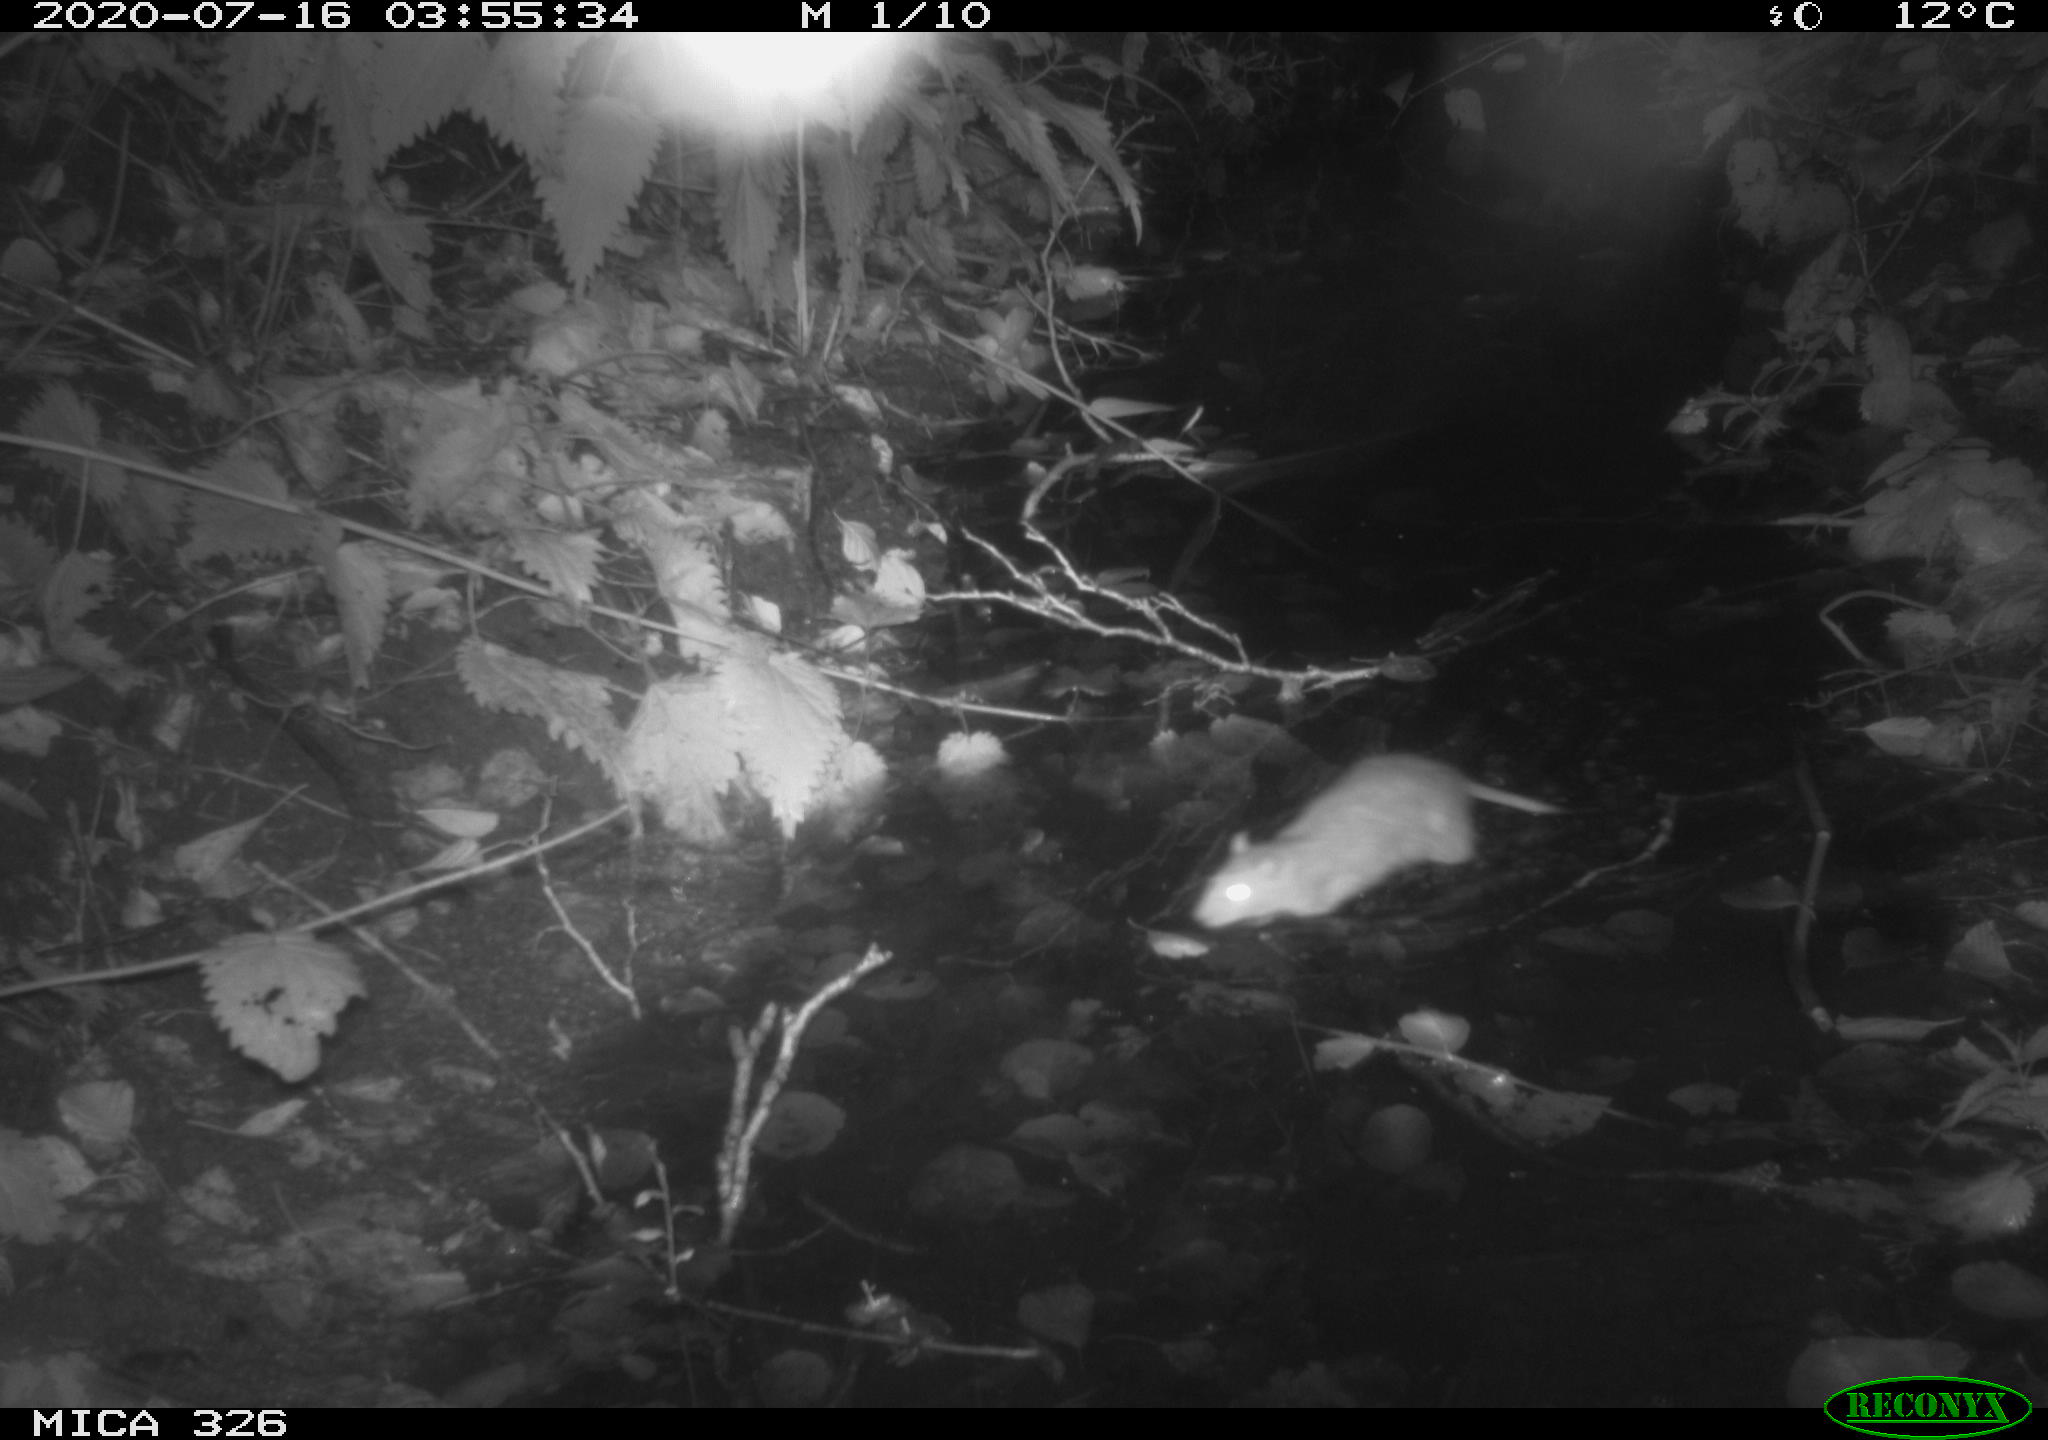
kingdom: Animalia
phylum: Chordata
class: Mammalia
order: Rodentia
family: Muridae
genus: Rattus
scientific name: Rattus norvegicus
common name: Brown rat
